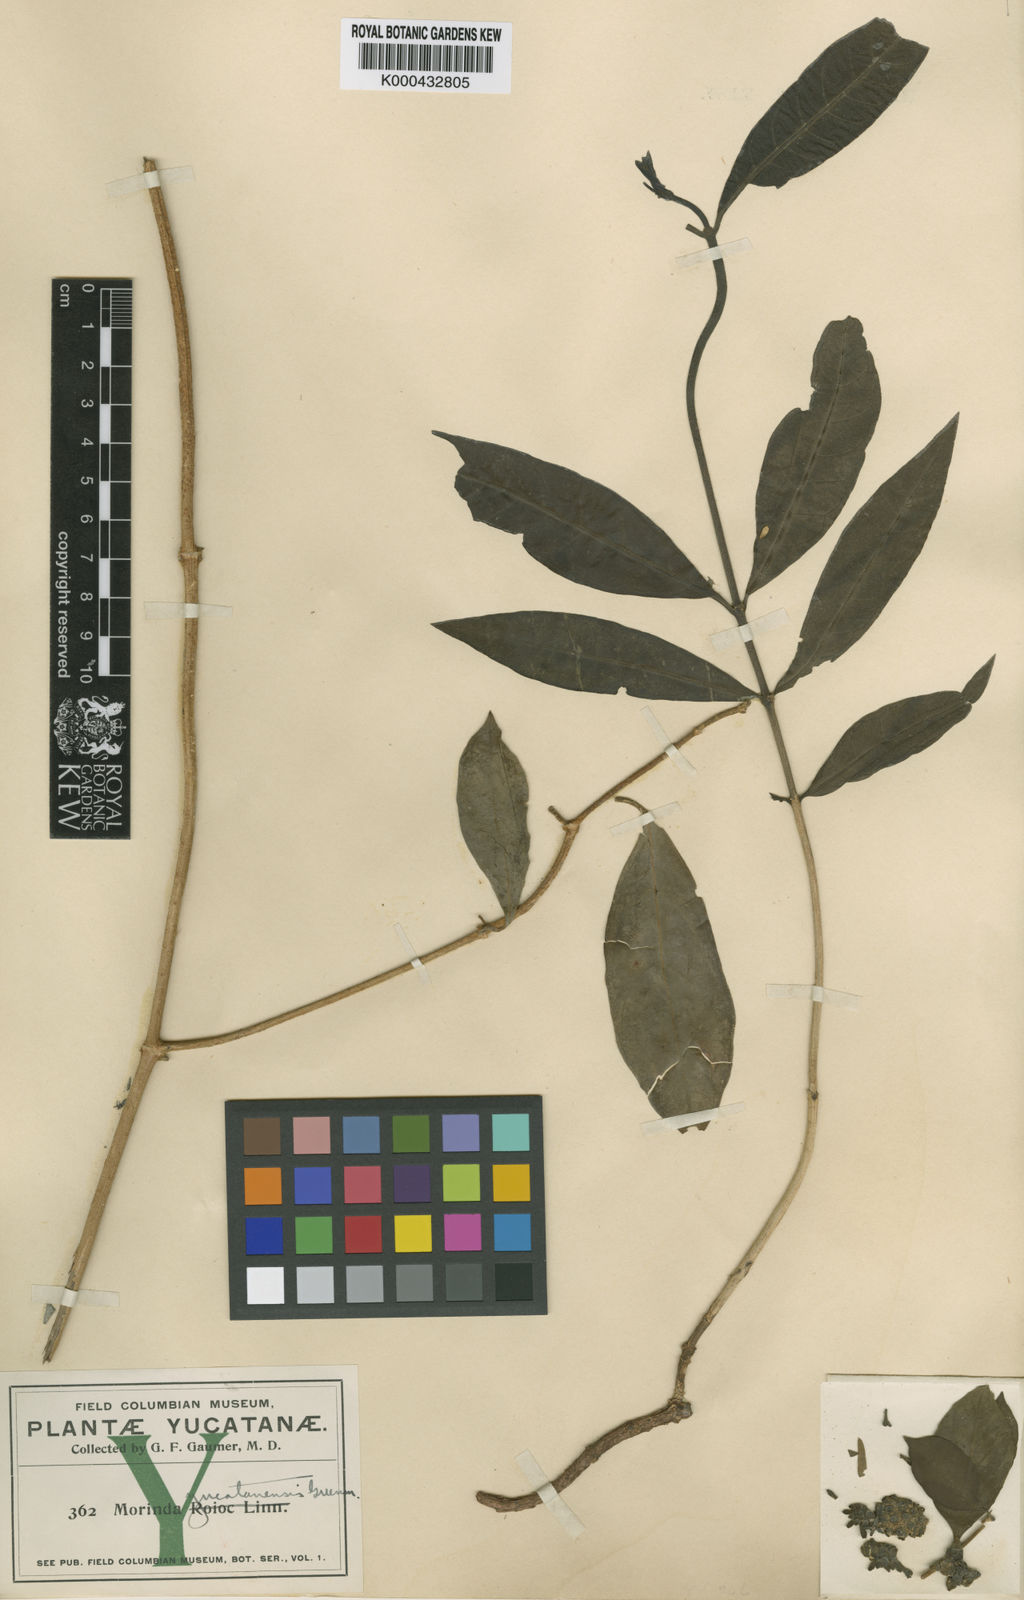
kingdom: Plantae
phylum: Tracheophyta
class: Magnoliopsida
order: Gentianales
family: Rubiaceae
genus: Morinda
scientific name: Morinda royoc
